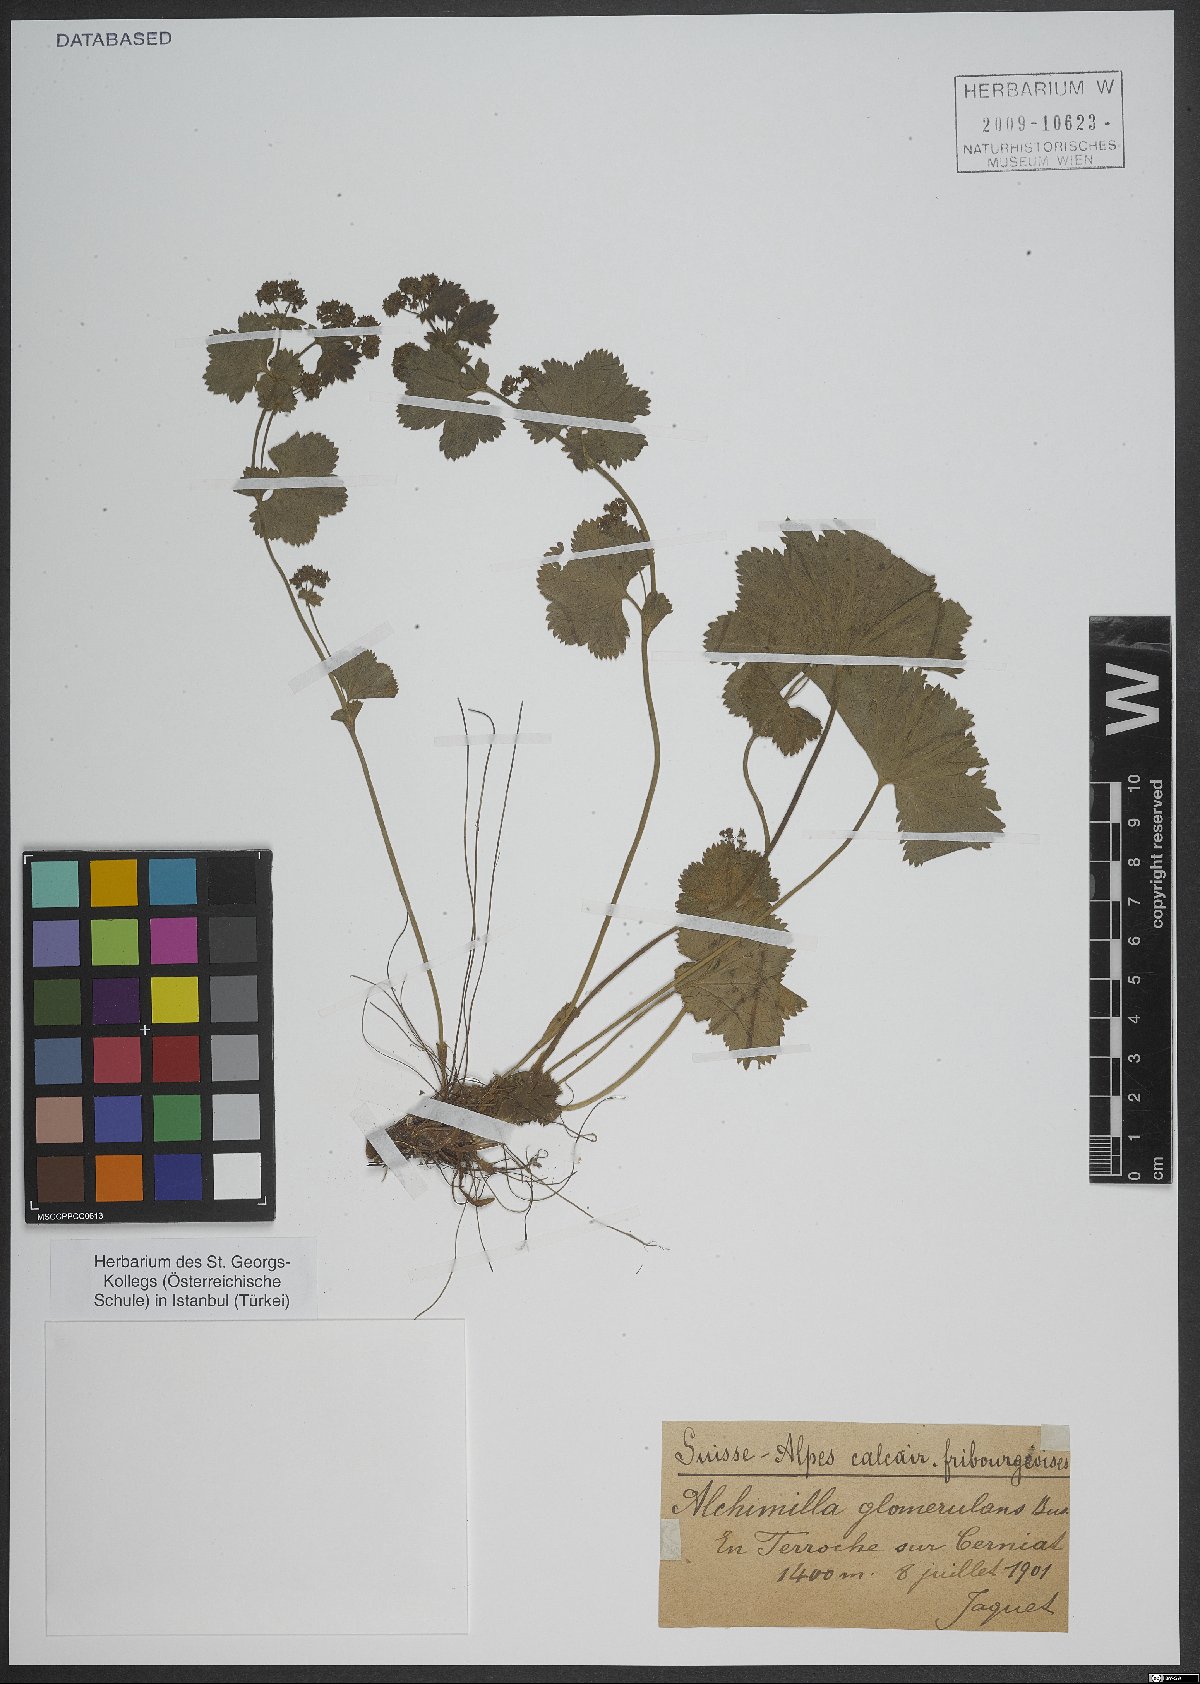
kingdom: Plantae
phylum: Tracheophyta
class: Magnoliopsida
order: Rosales
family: Rosaceae
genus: Alchemilla
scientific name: Alchemilla glomerulans
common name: Clustered lady's mantle
